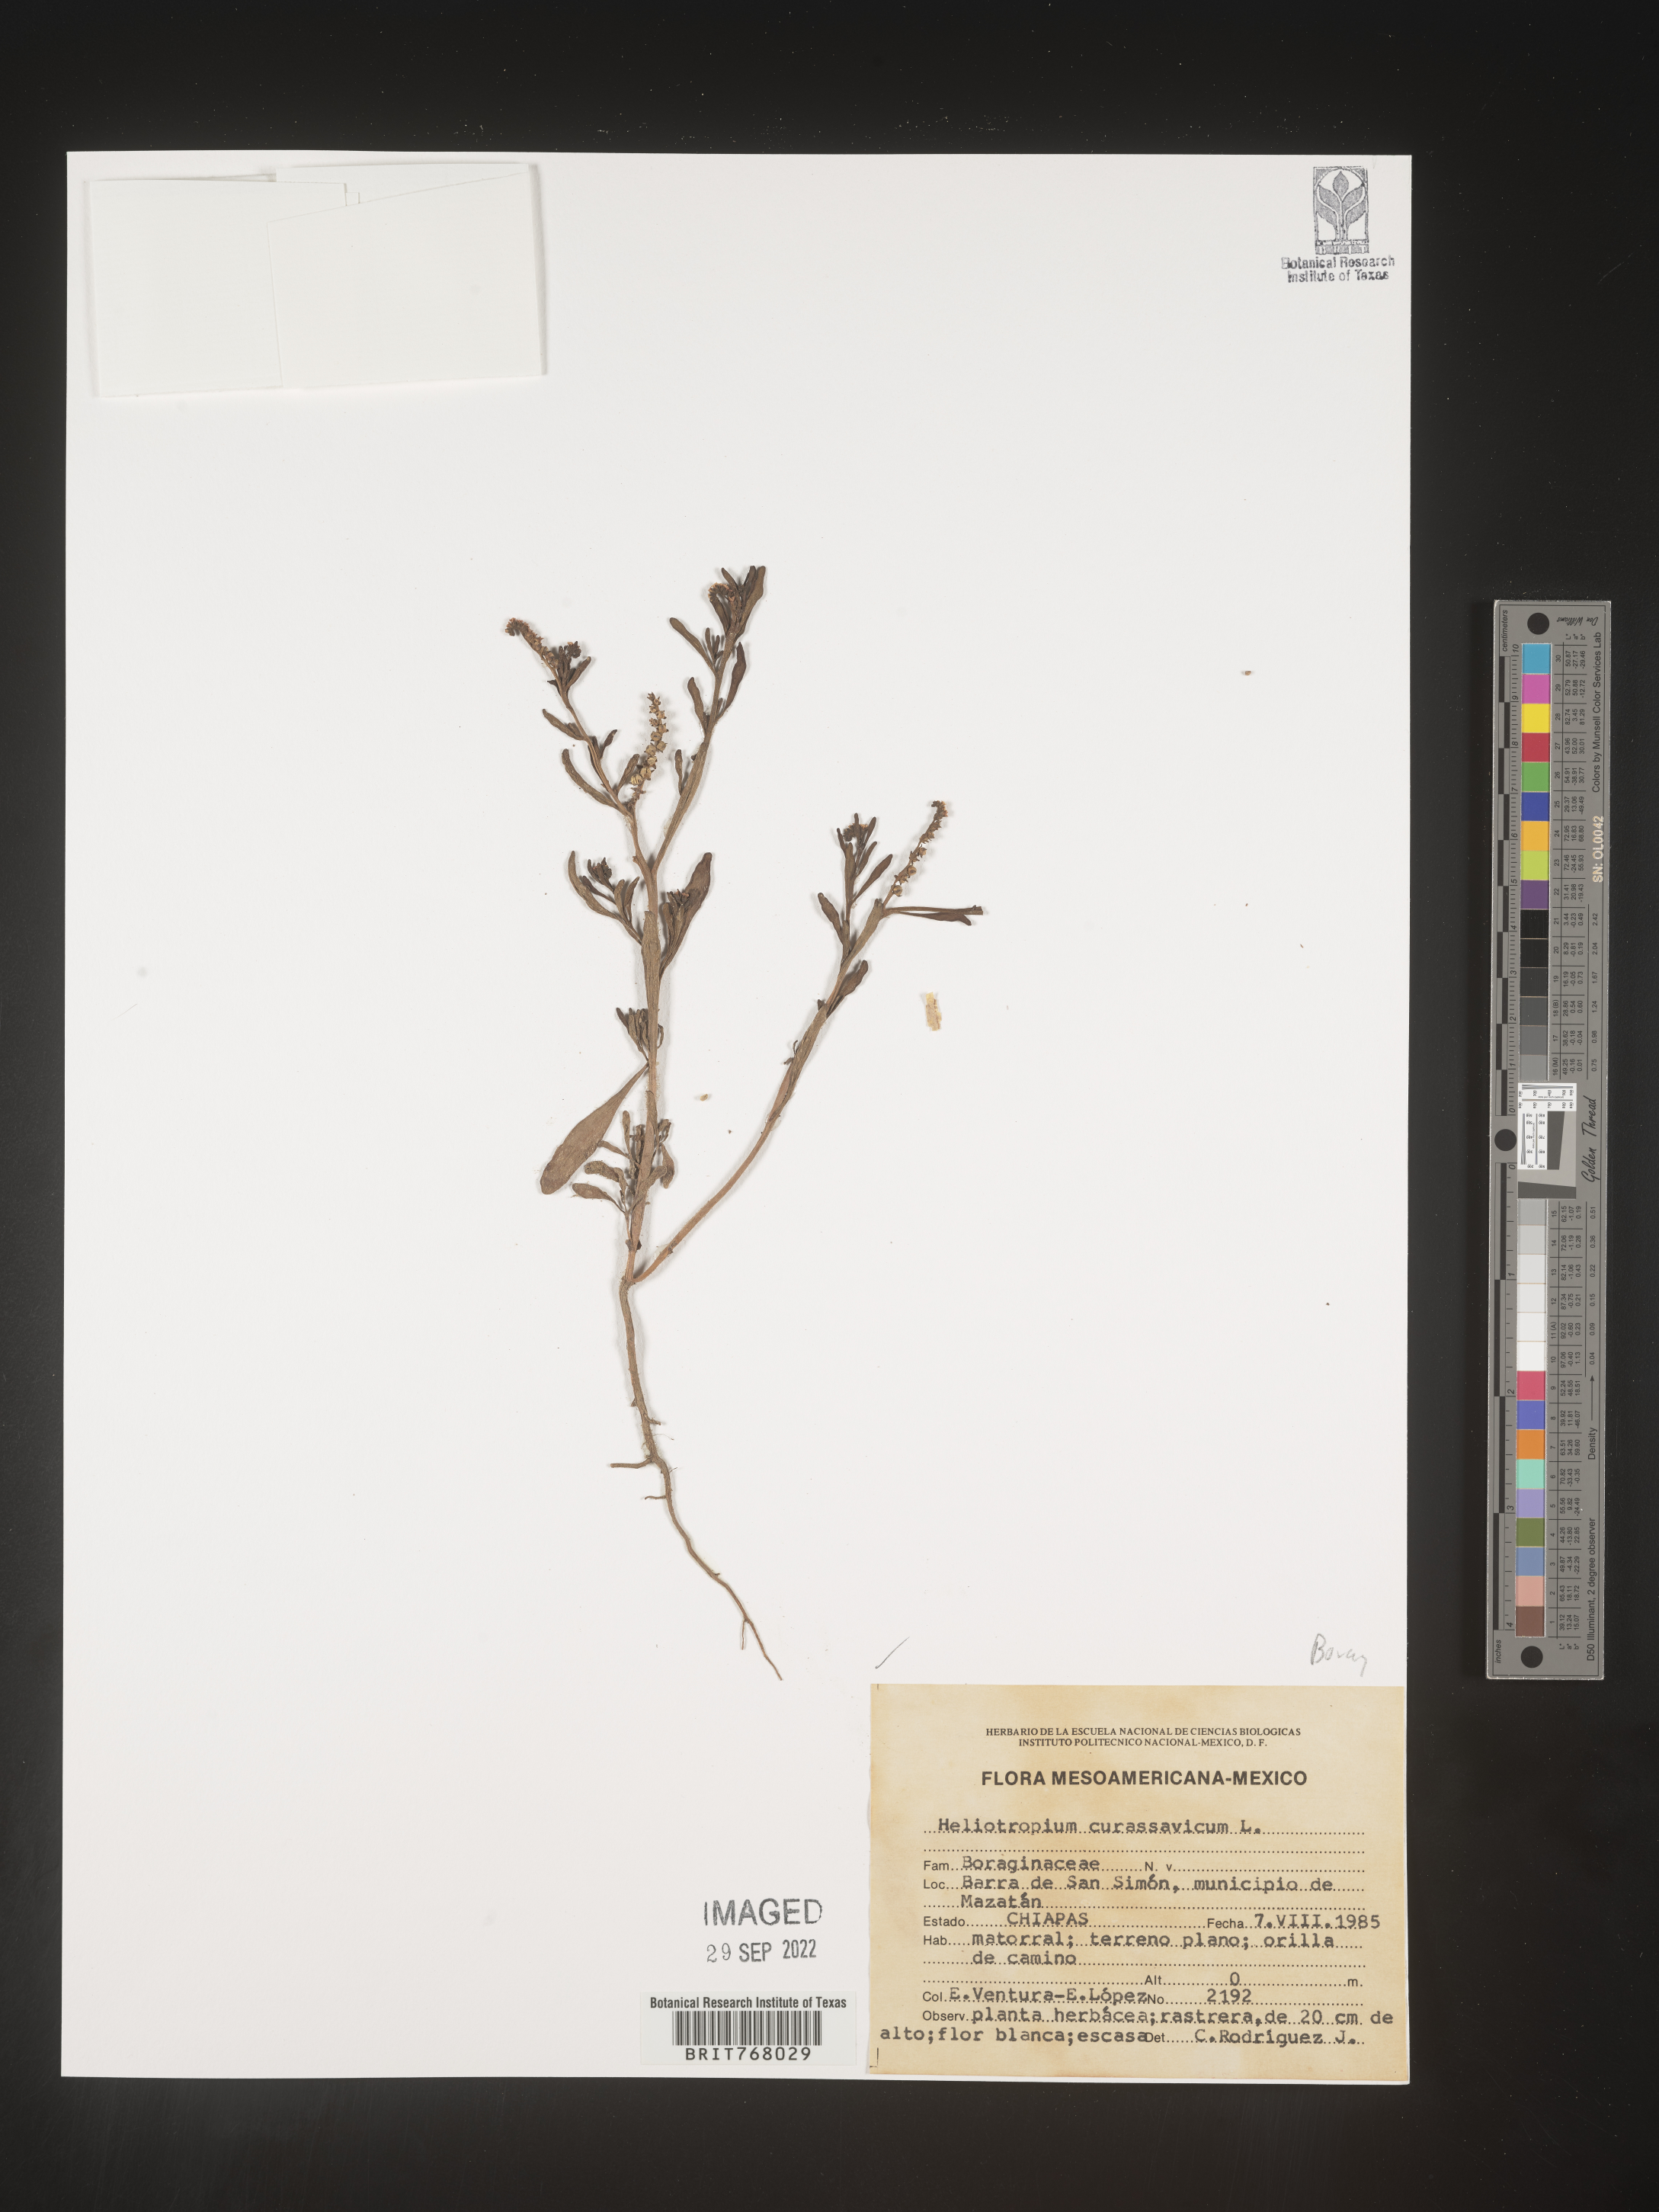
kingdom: Plantae
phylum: Tracheophyta
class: Magnoliopsida
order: Boraginales
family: Heliotropiaceae
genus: Heliotropium
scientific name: Heliotropium curassavicum
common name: Seaside heliotrope
